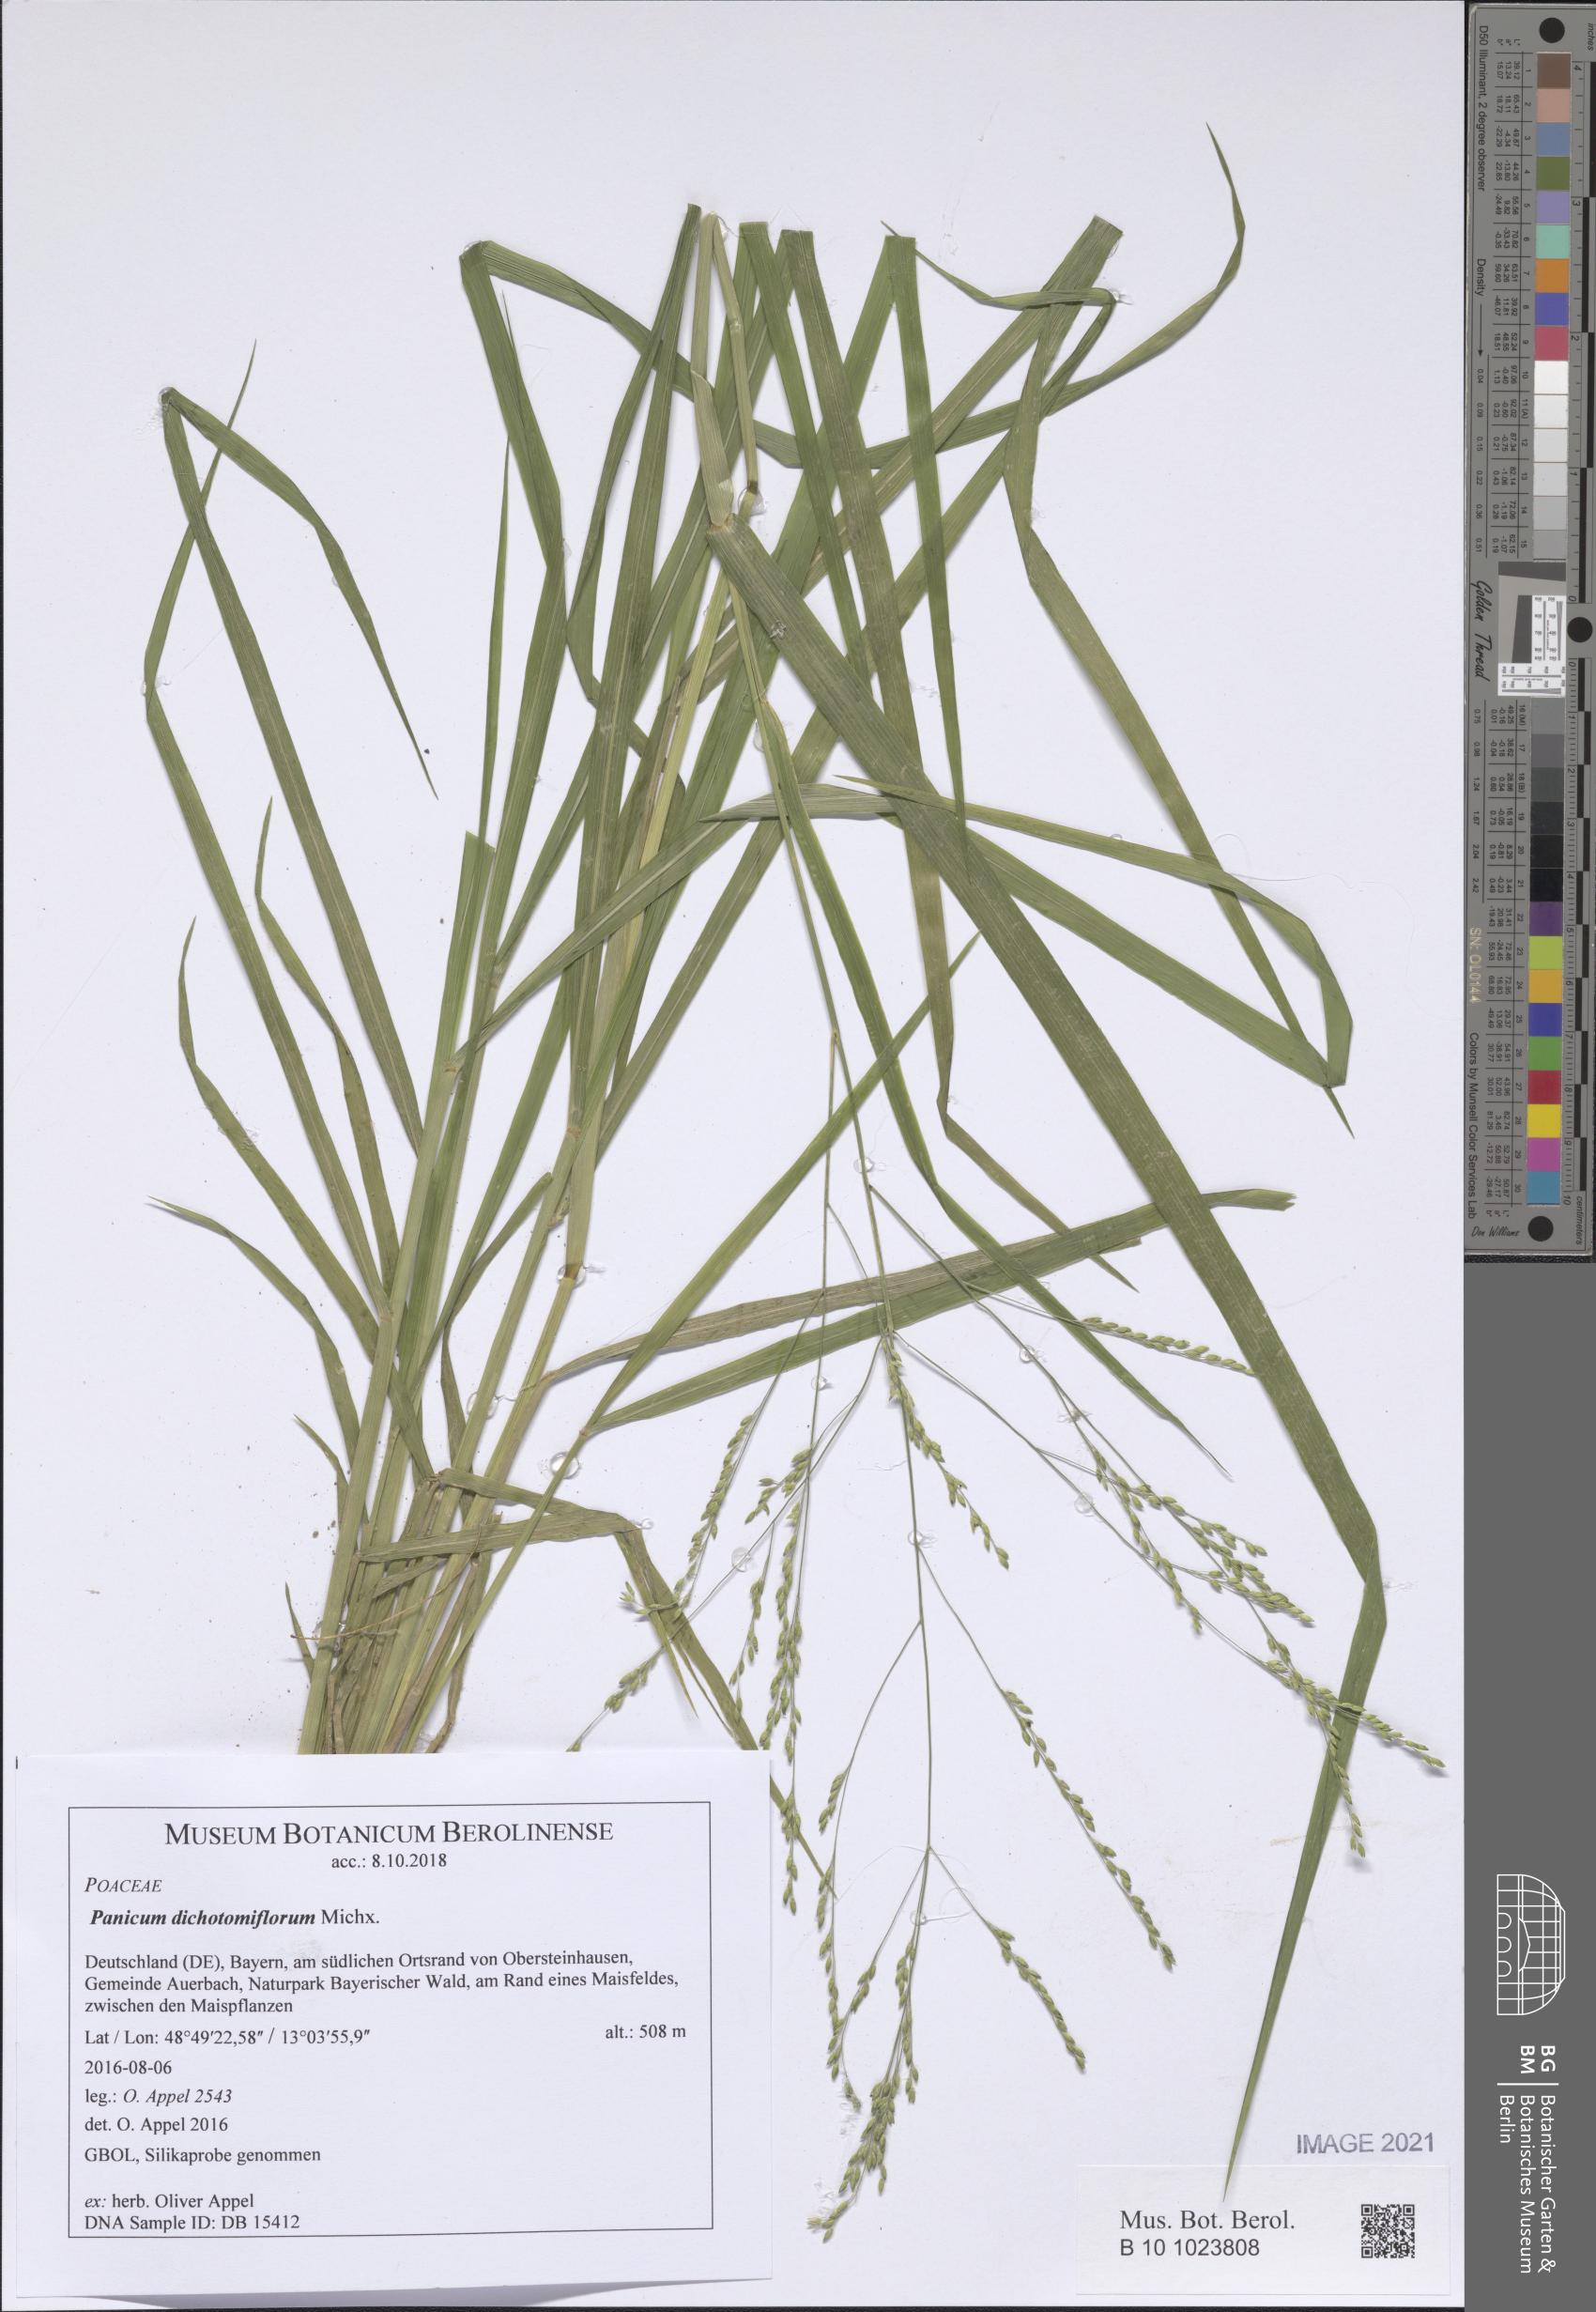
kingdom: Plantae
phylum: Tracheophyta
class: Liliopsida
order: Poales
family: Poaceae
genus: Panicum
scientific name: Panicum dichotomiflorum
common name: Autumn millet
